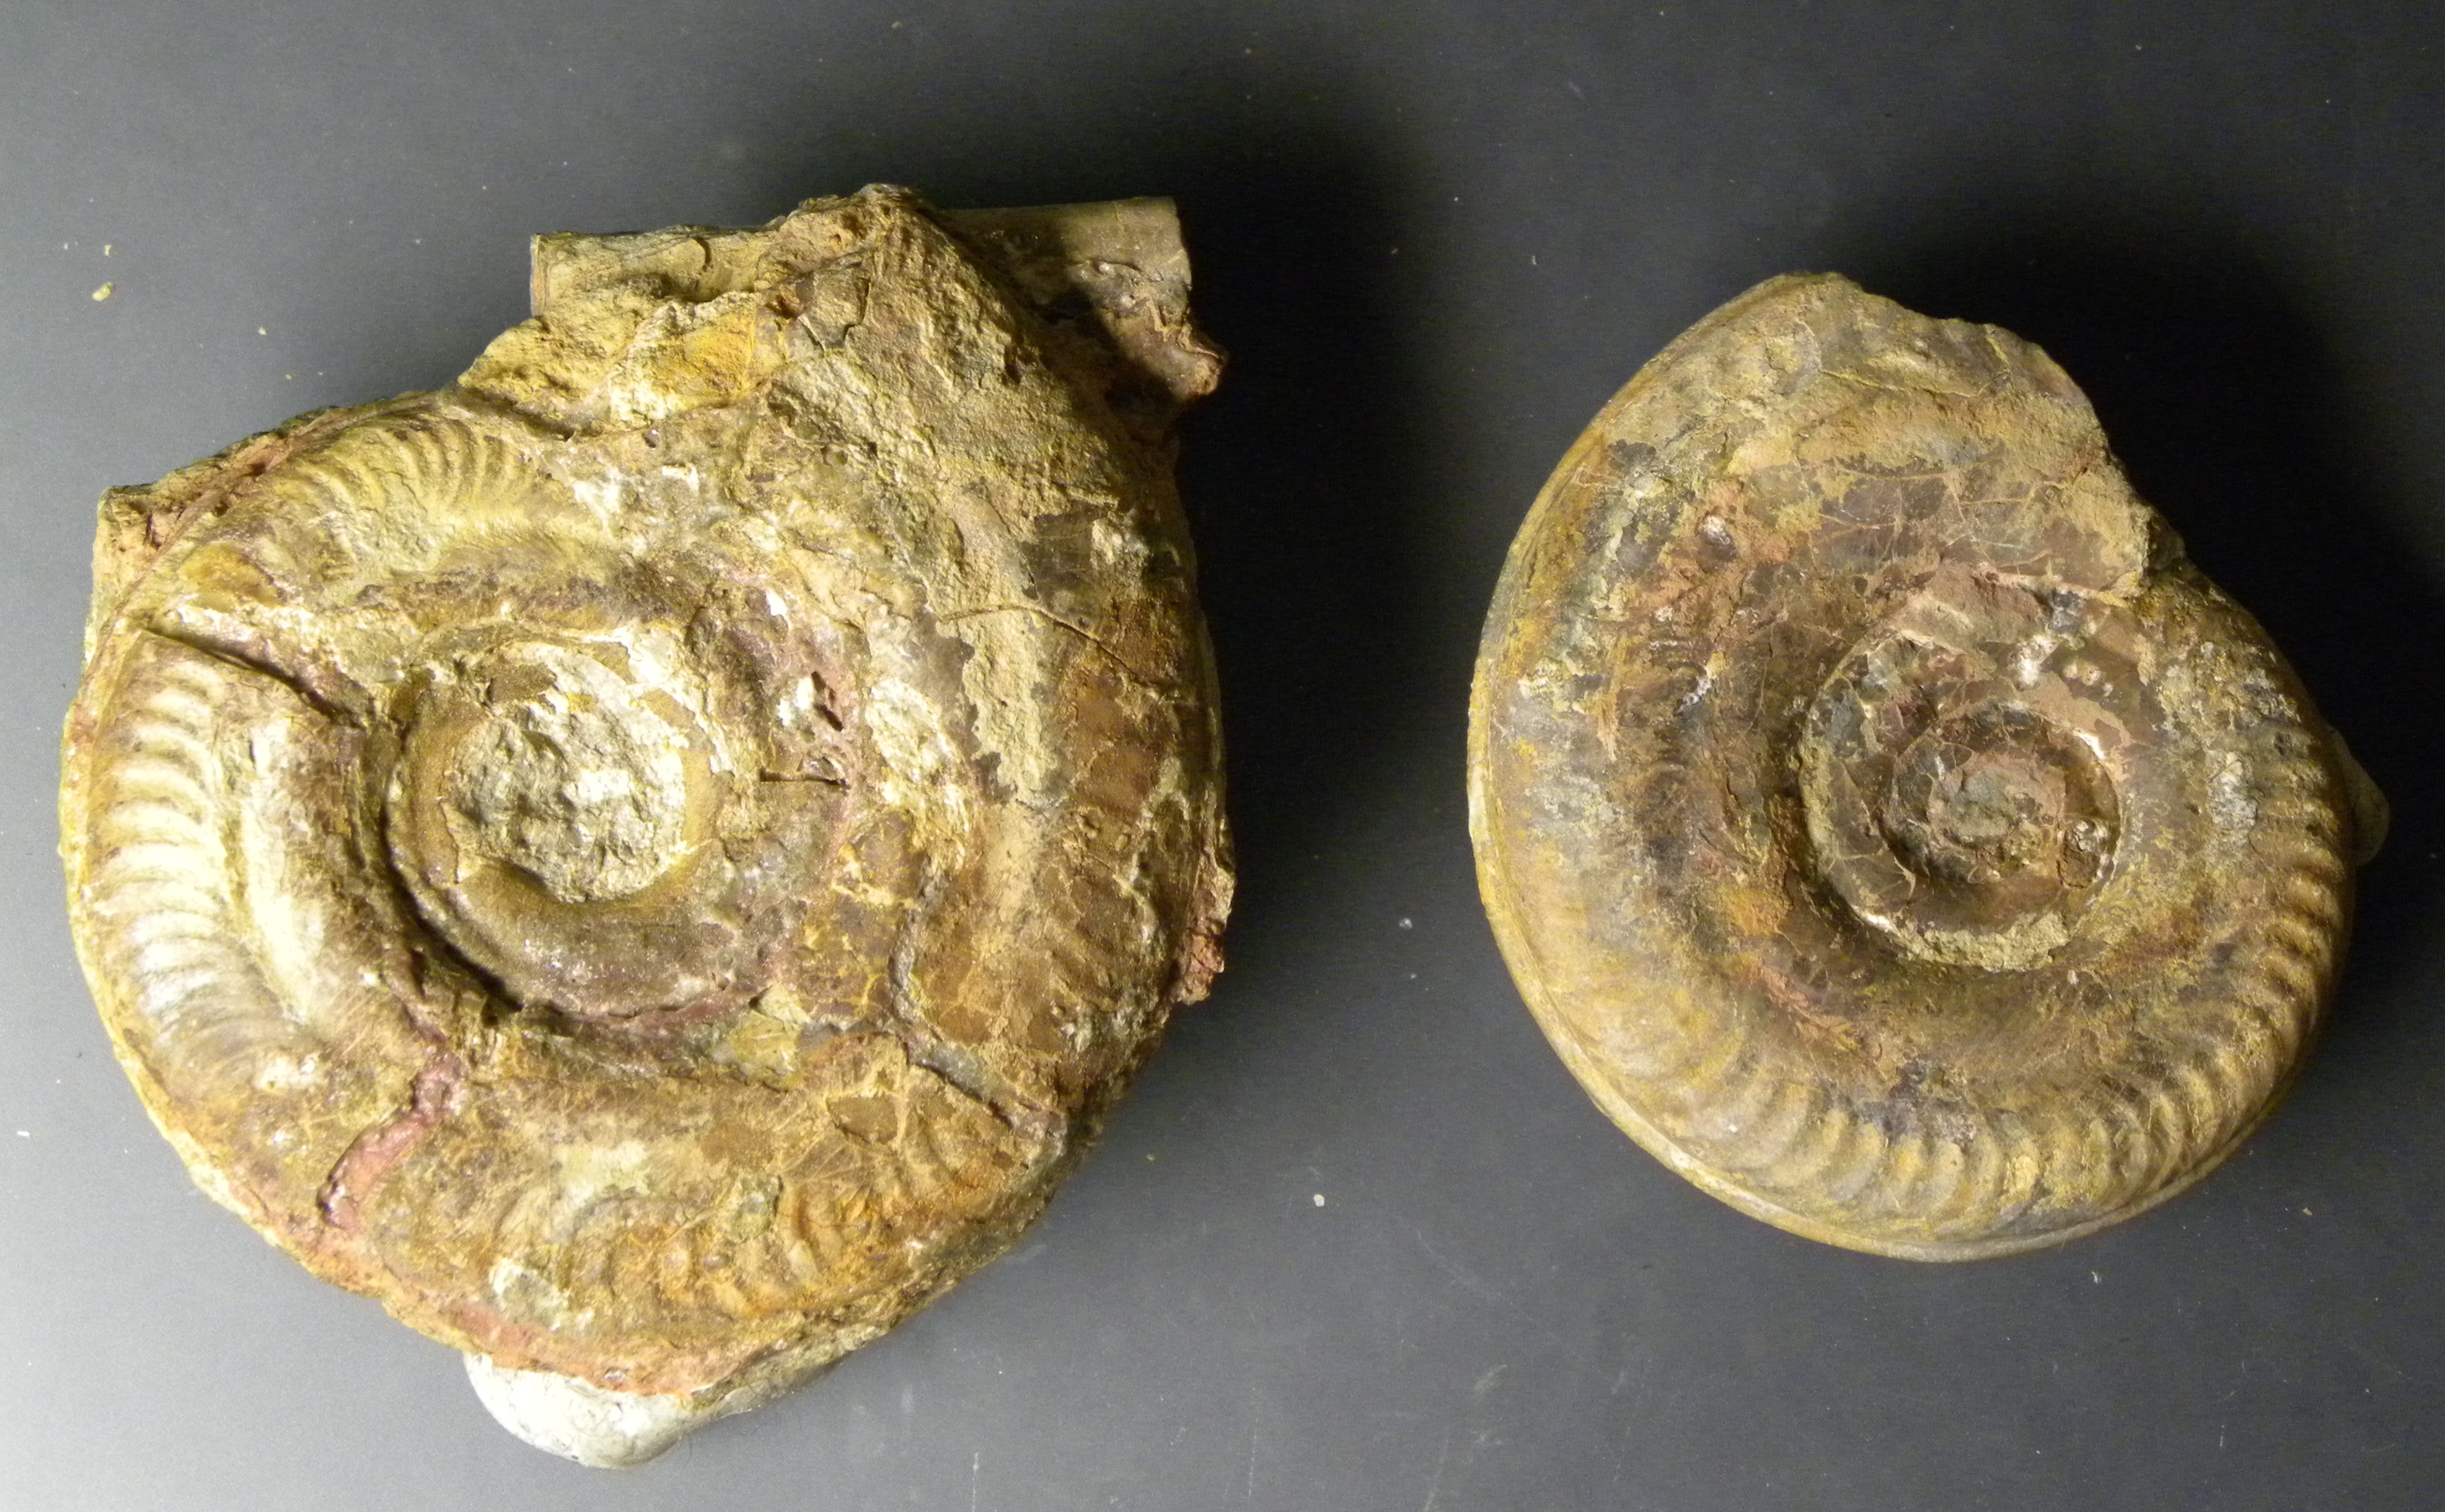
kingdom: Animalia
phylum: Mollusca
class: Cephalopoda
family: Hildoceratidae
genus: Hildoceras
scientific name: Hildoceras semipolitum
